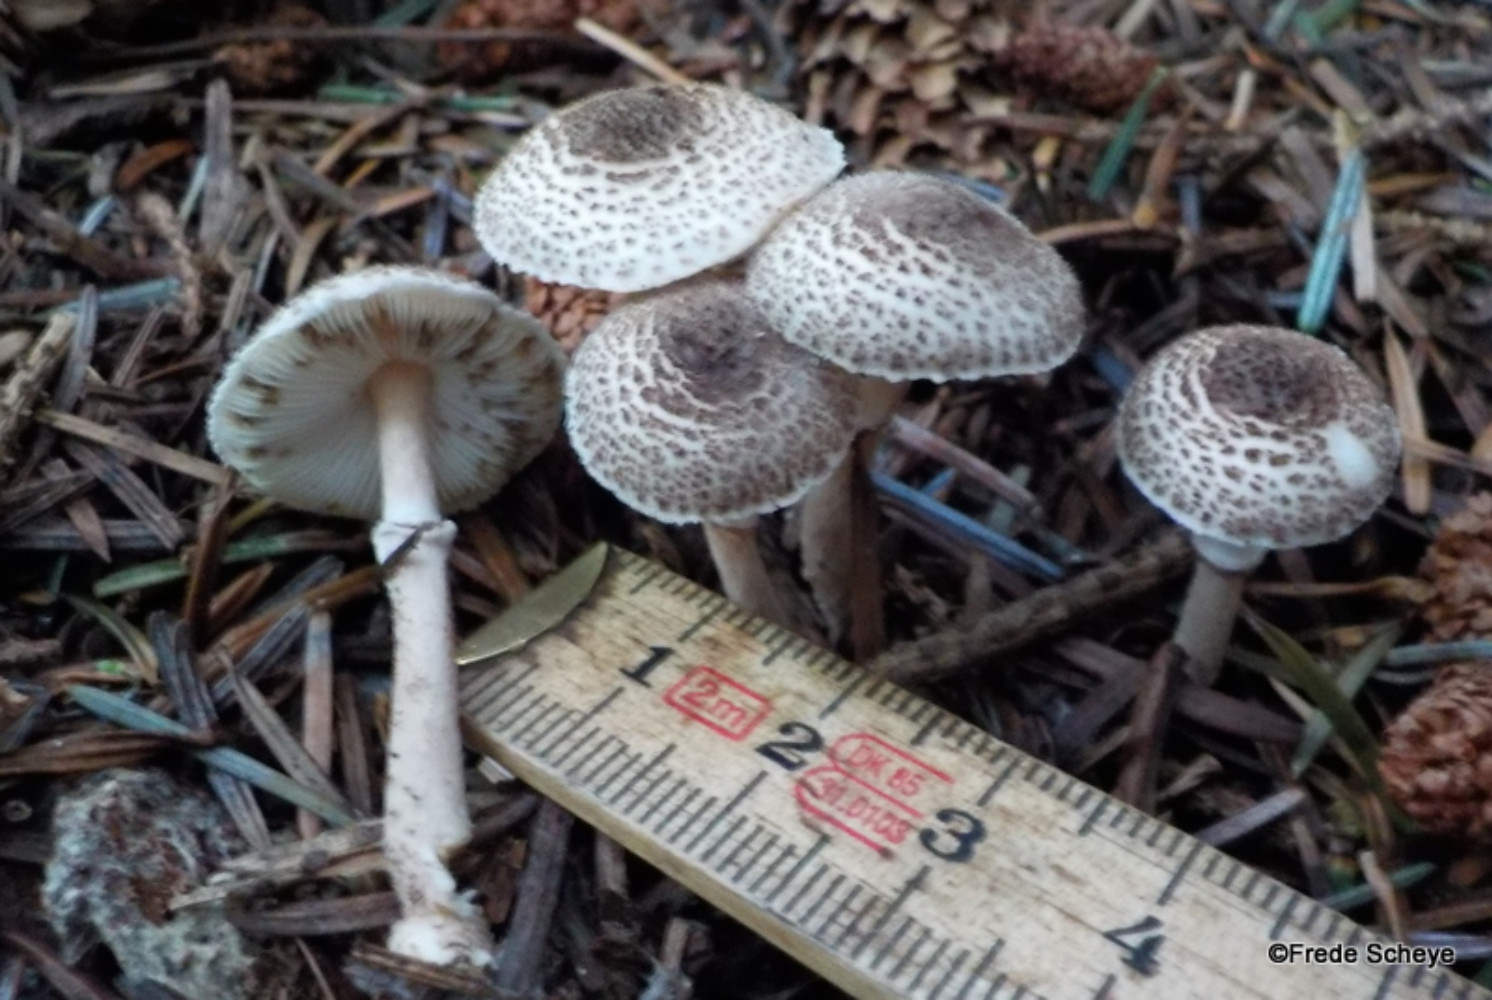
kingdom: Fungi
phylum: Basidiomycota
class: Agaricomycetes
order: Agaricales
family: Agaricaceae
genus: Lepiota
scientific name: Lepiota felina
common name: sortskællet parasolhat
